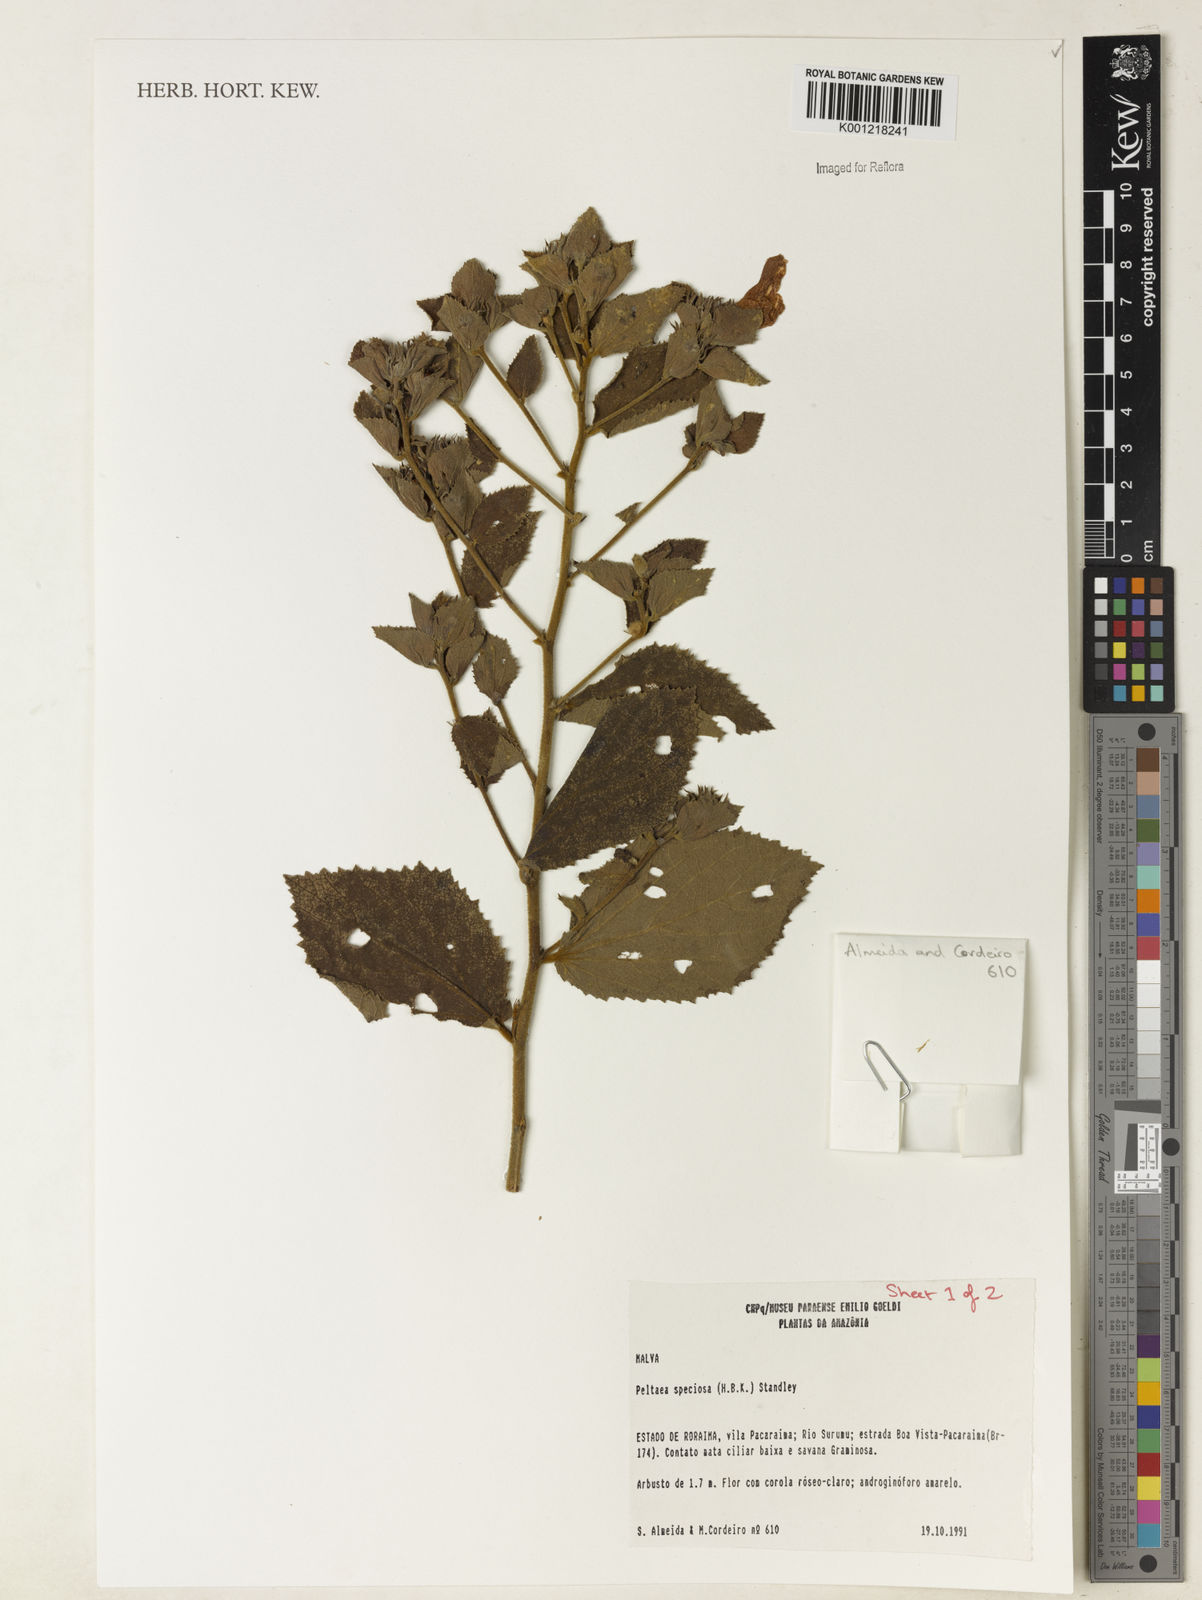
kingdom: Plantae
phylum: Tracheophyta
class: Magnoliopsida
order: Malvales
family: Malvaceae
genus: Peltaea
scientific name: Peltaea speciosa
